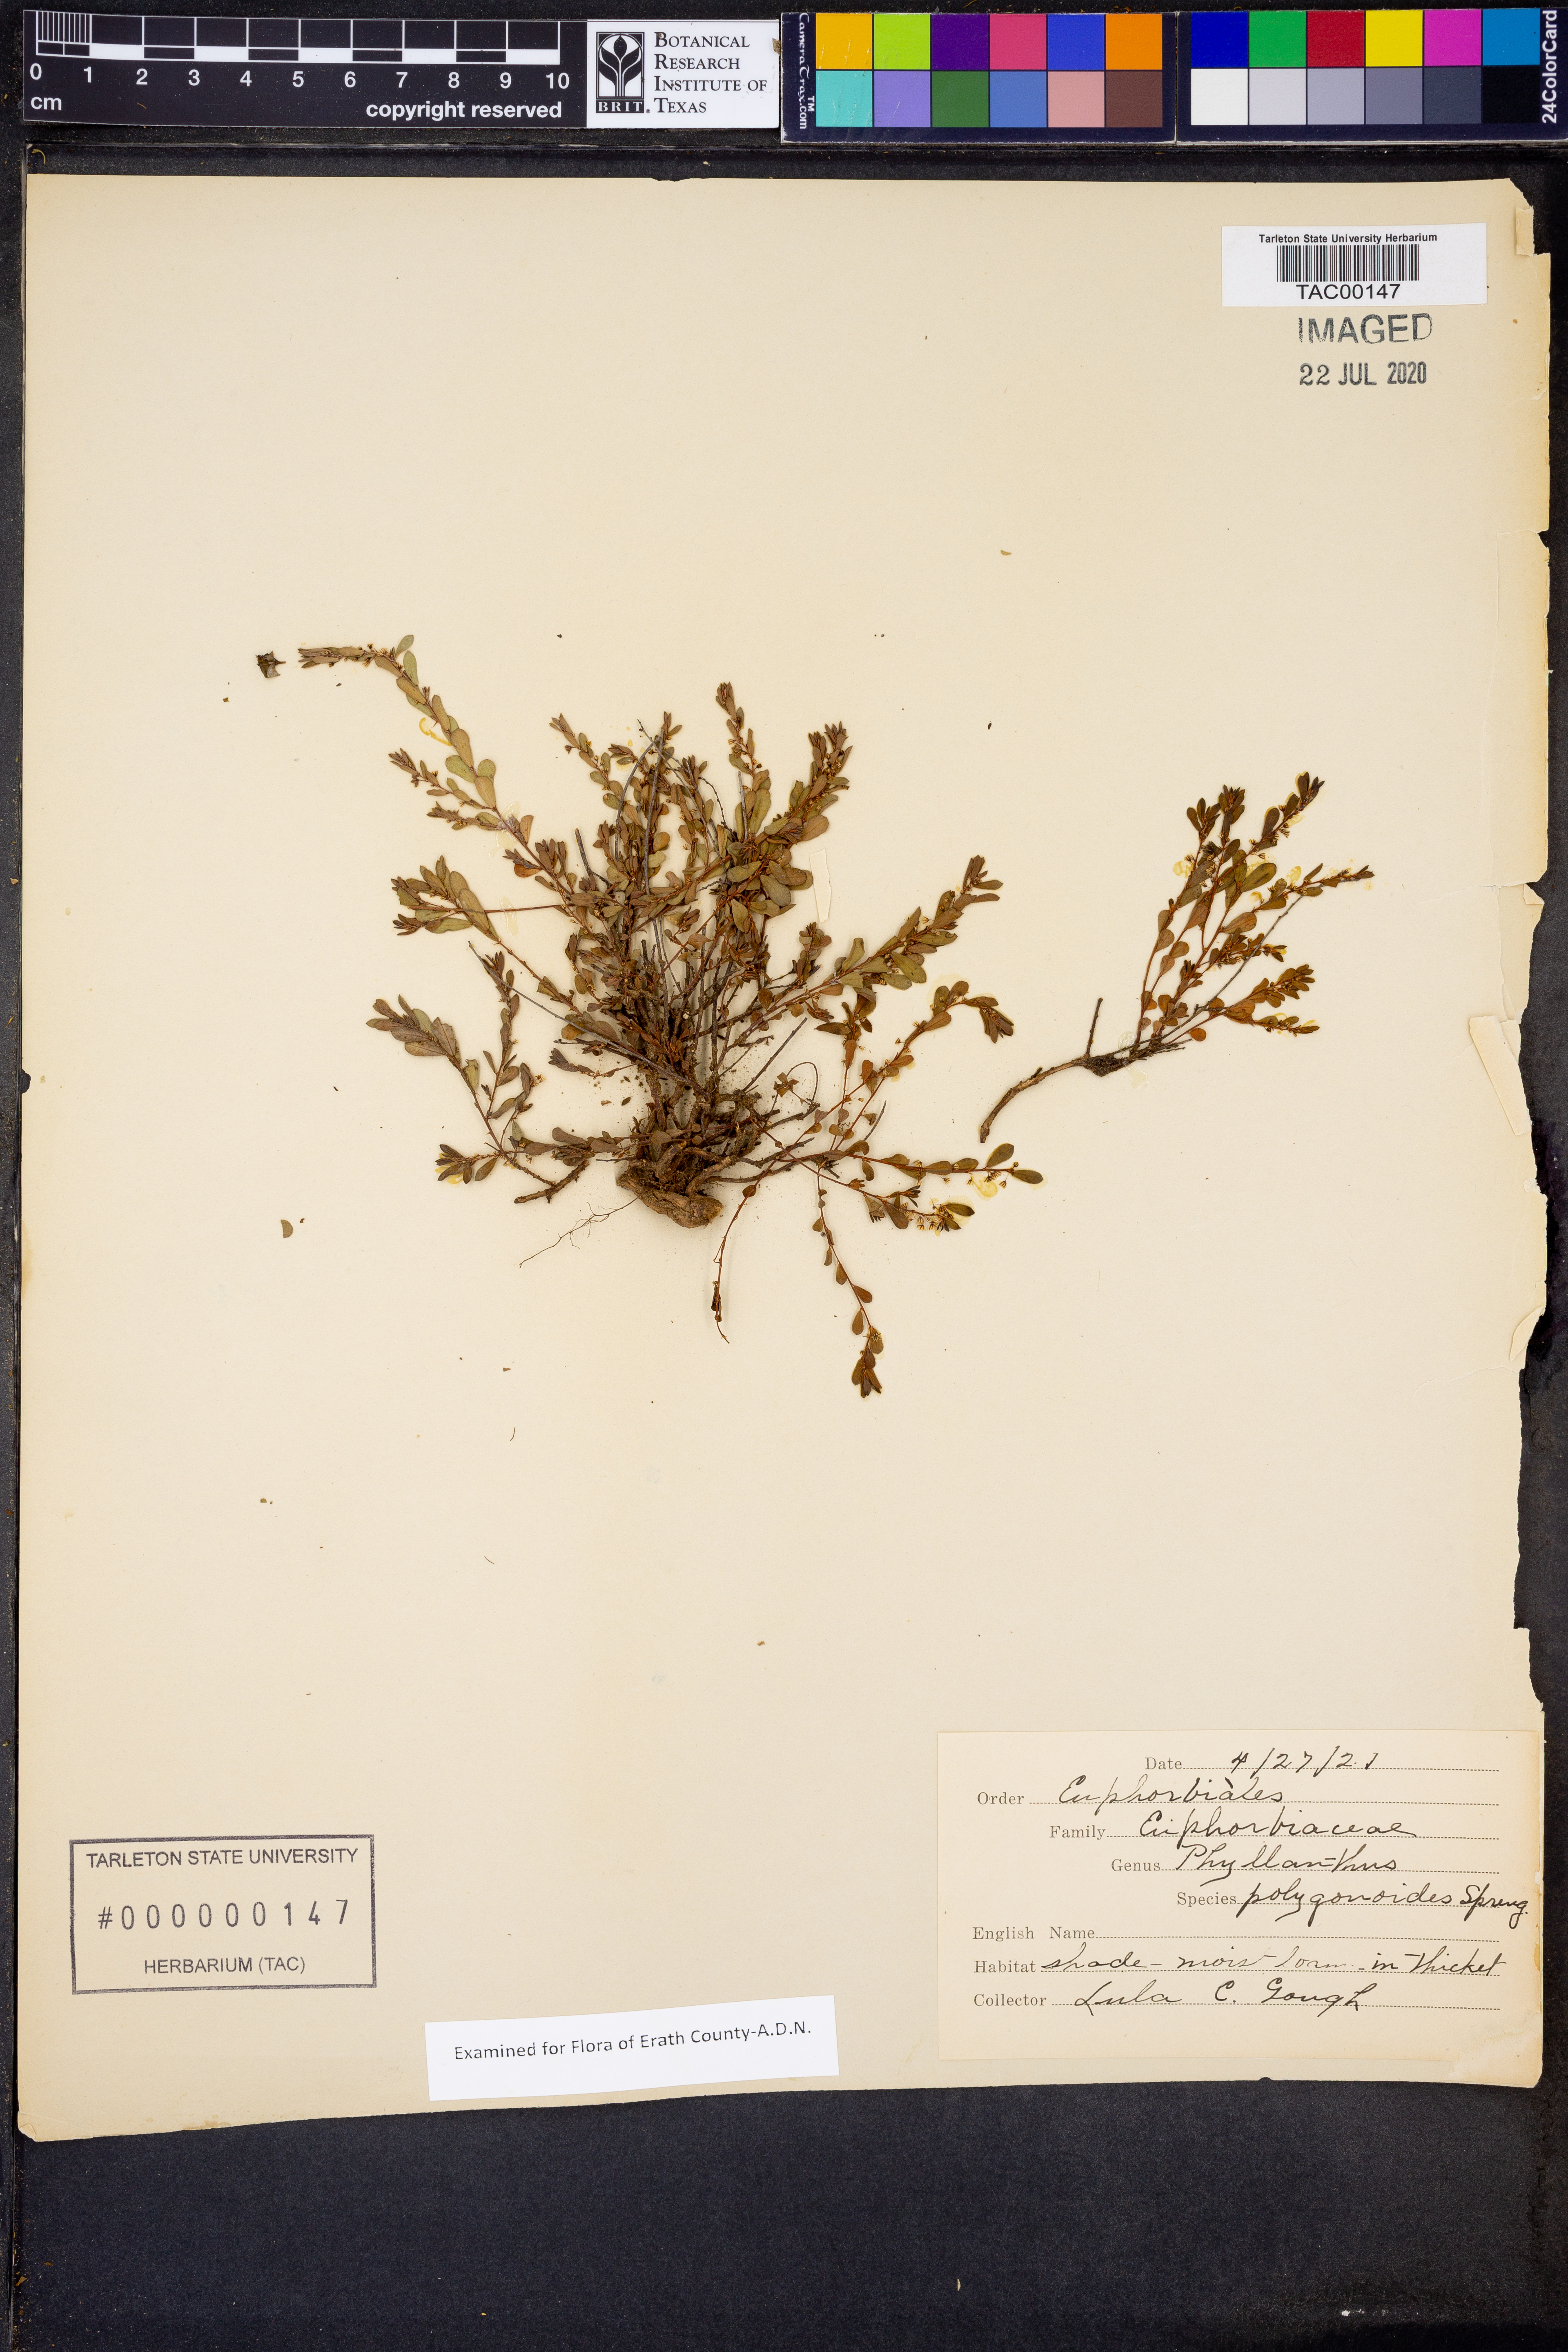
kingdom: Plantae
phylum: Tracheophyta
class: Magnoliopsida
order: Malpighiales
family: Phyllanthaceae
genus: Phyllanthus
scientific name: Phyllanthus polygonoides
